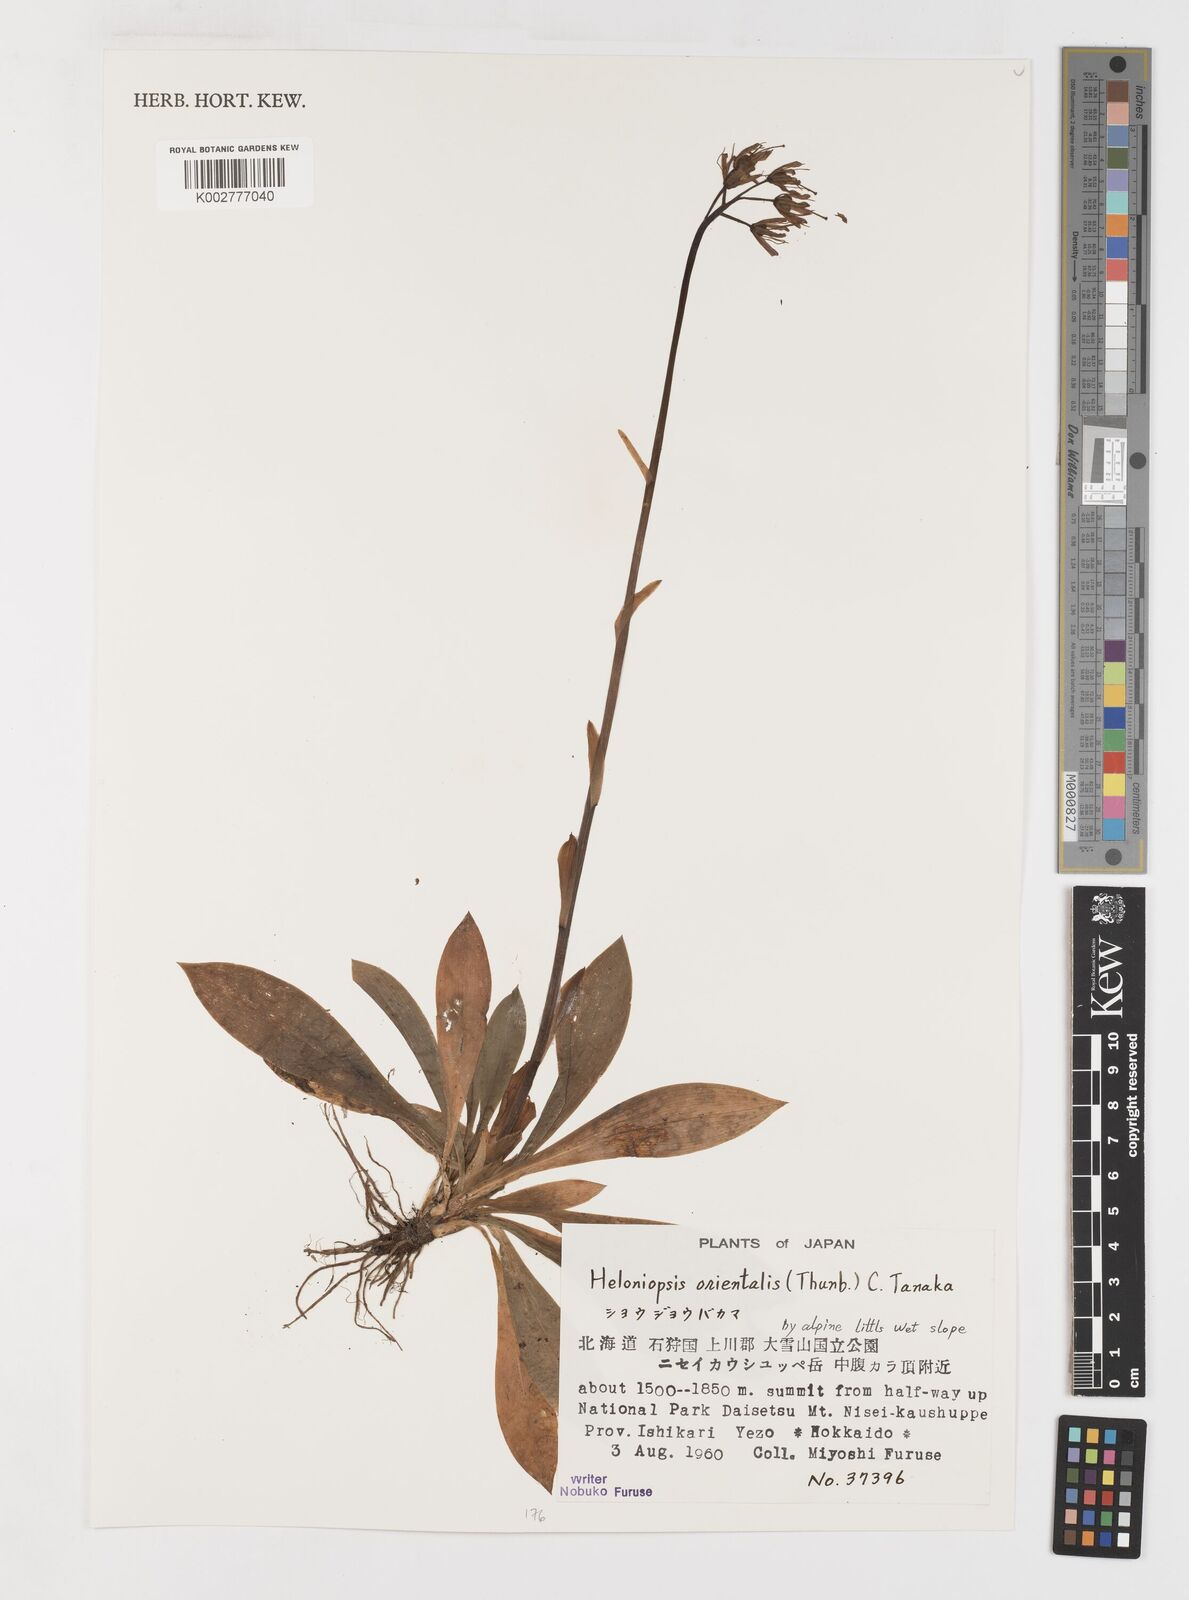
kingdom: Plantae
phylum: Tracheophyta
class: Liliopsida
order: Liliales
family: Melanthiaceae
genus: Helonias
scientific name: Helonias orientalis
